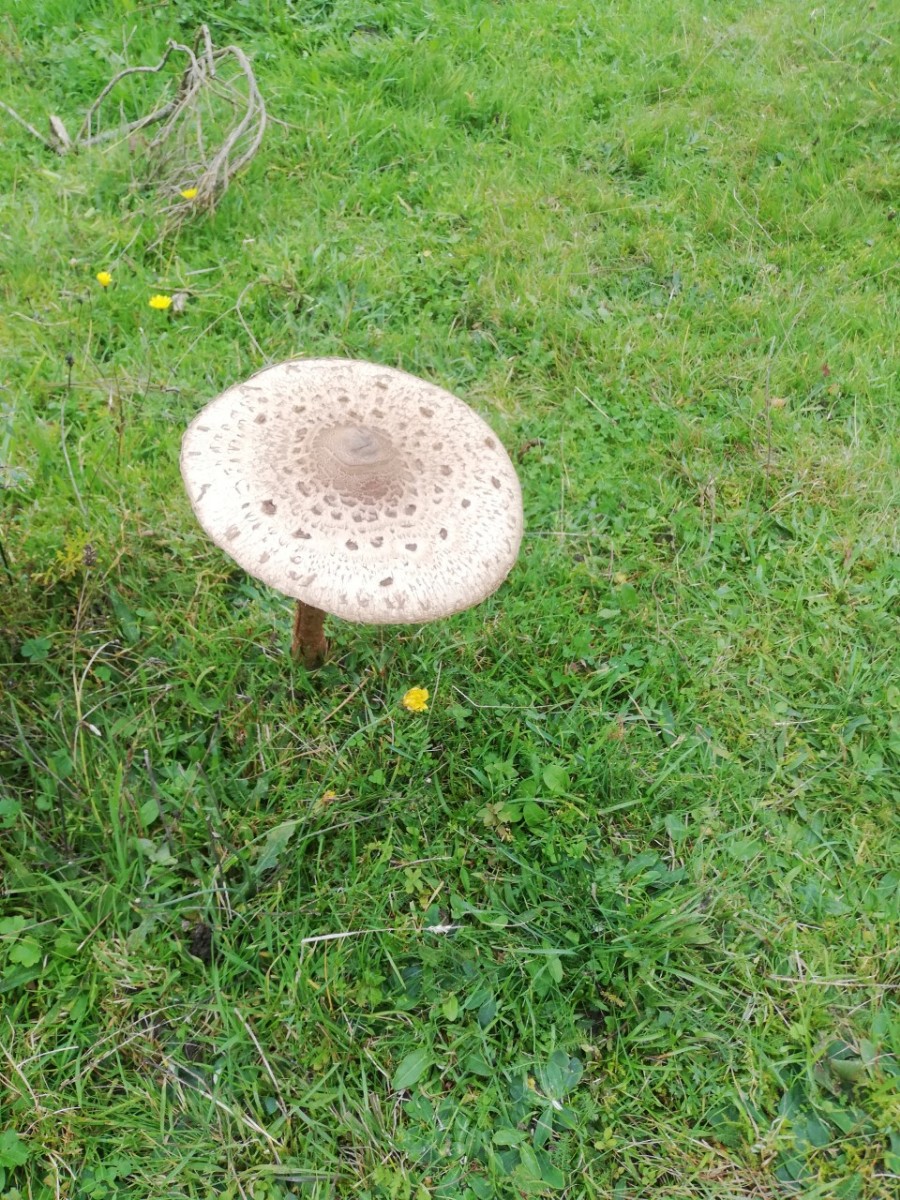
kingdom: Fungi
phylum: Basidiomycota
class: Agaricomycetes
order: Agaricales
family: Agaricaceae
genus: Macrolepiota
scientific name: Macrolepiota procera
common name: stor kæmpeparasolhat
